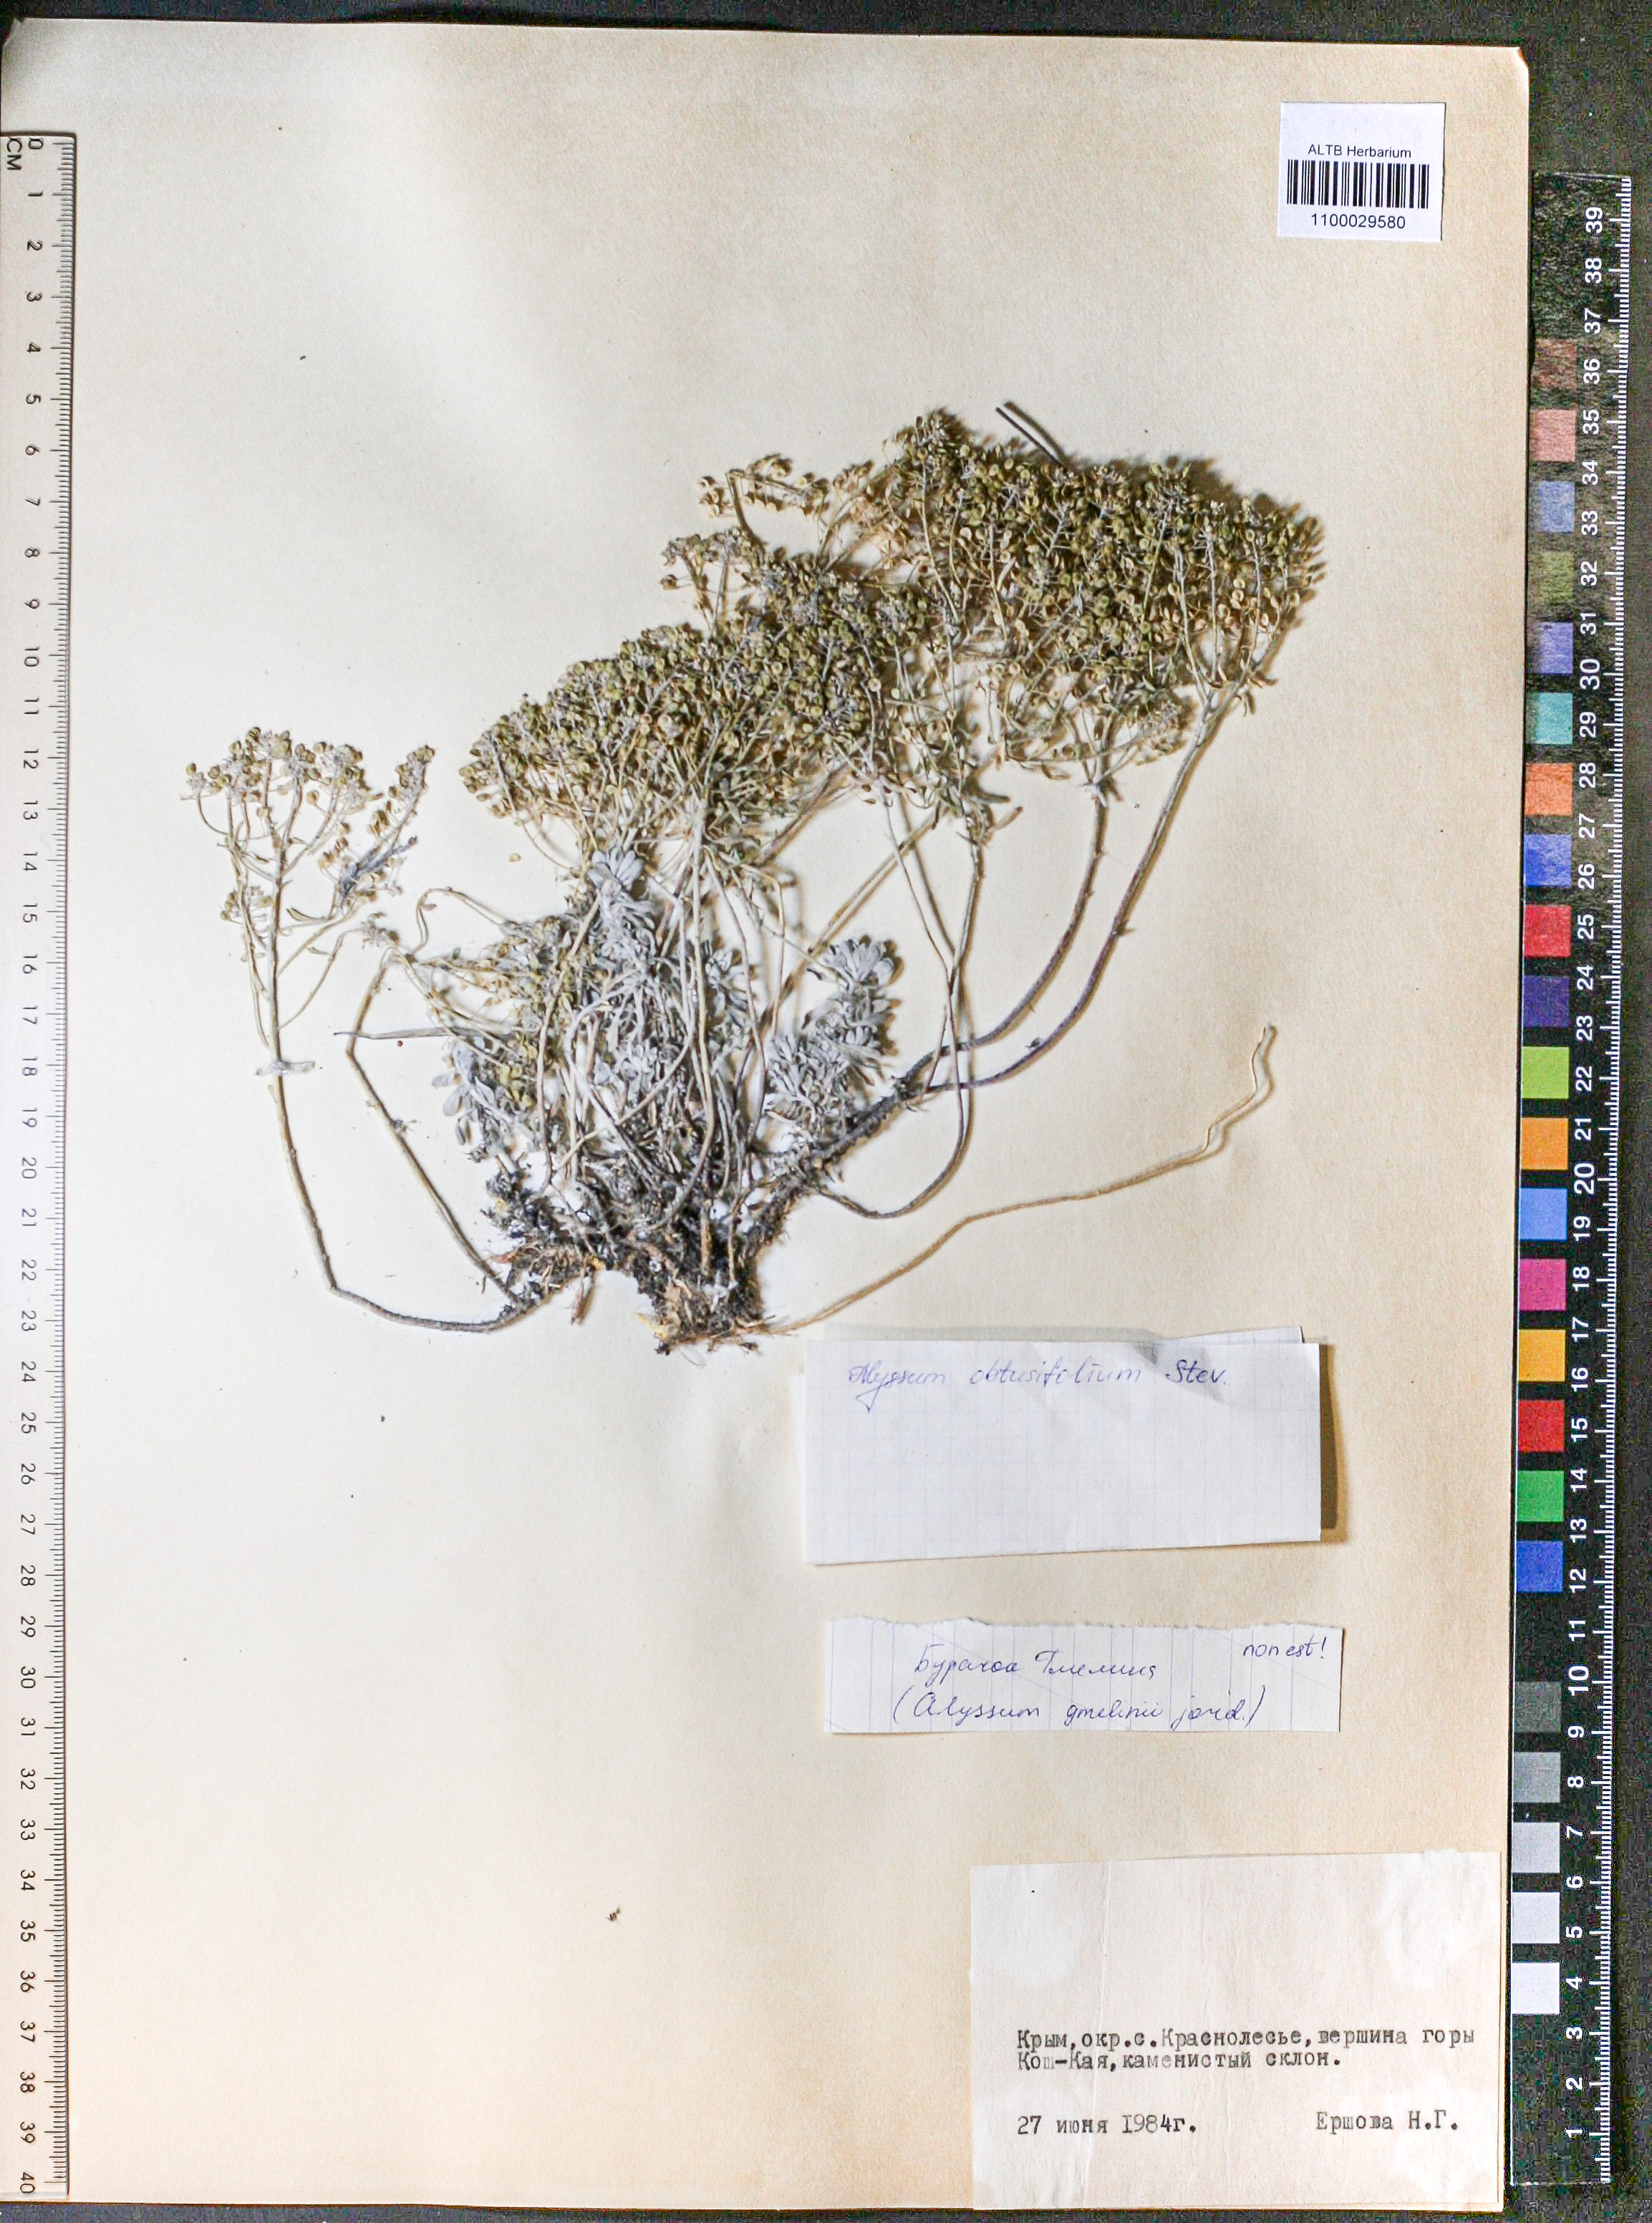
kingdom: Plantae
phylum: Tracheophyta
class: Magnoliopsida
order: Brassicales
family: Brassicaceae
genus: Odontarrhena
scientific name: Odontarrhena obtusifolia
